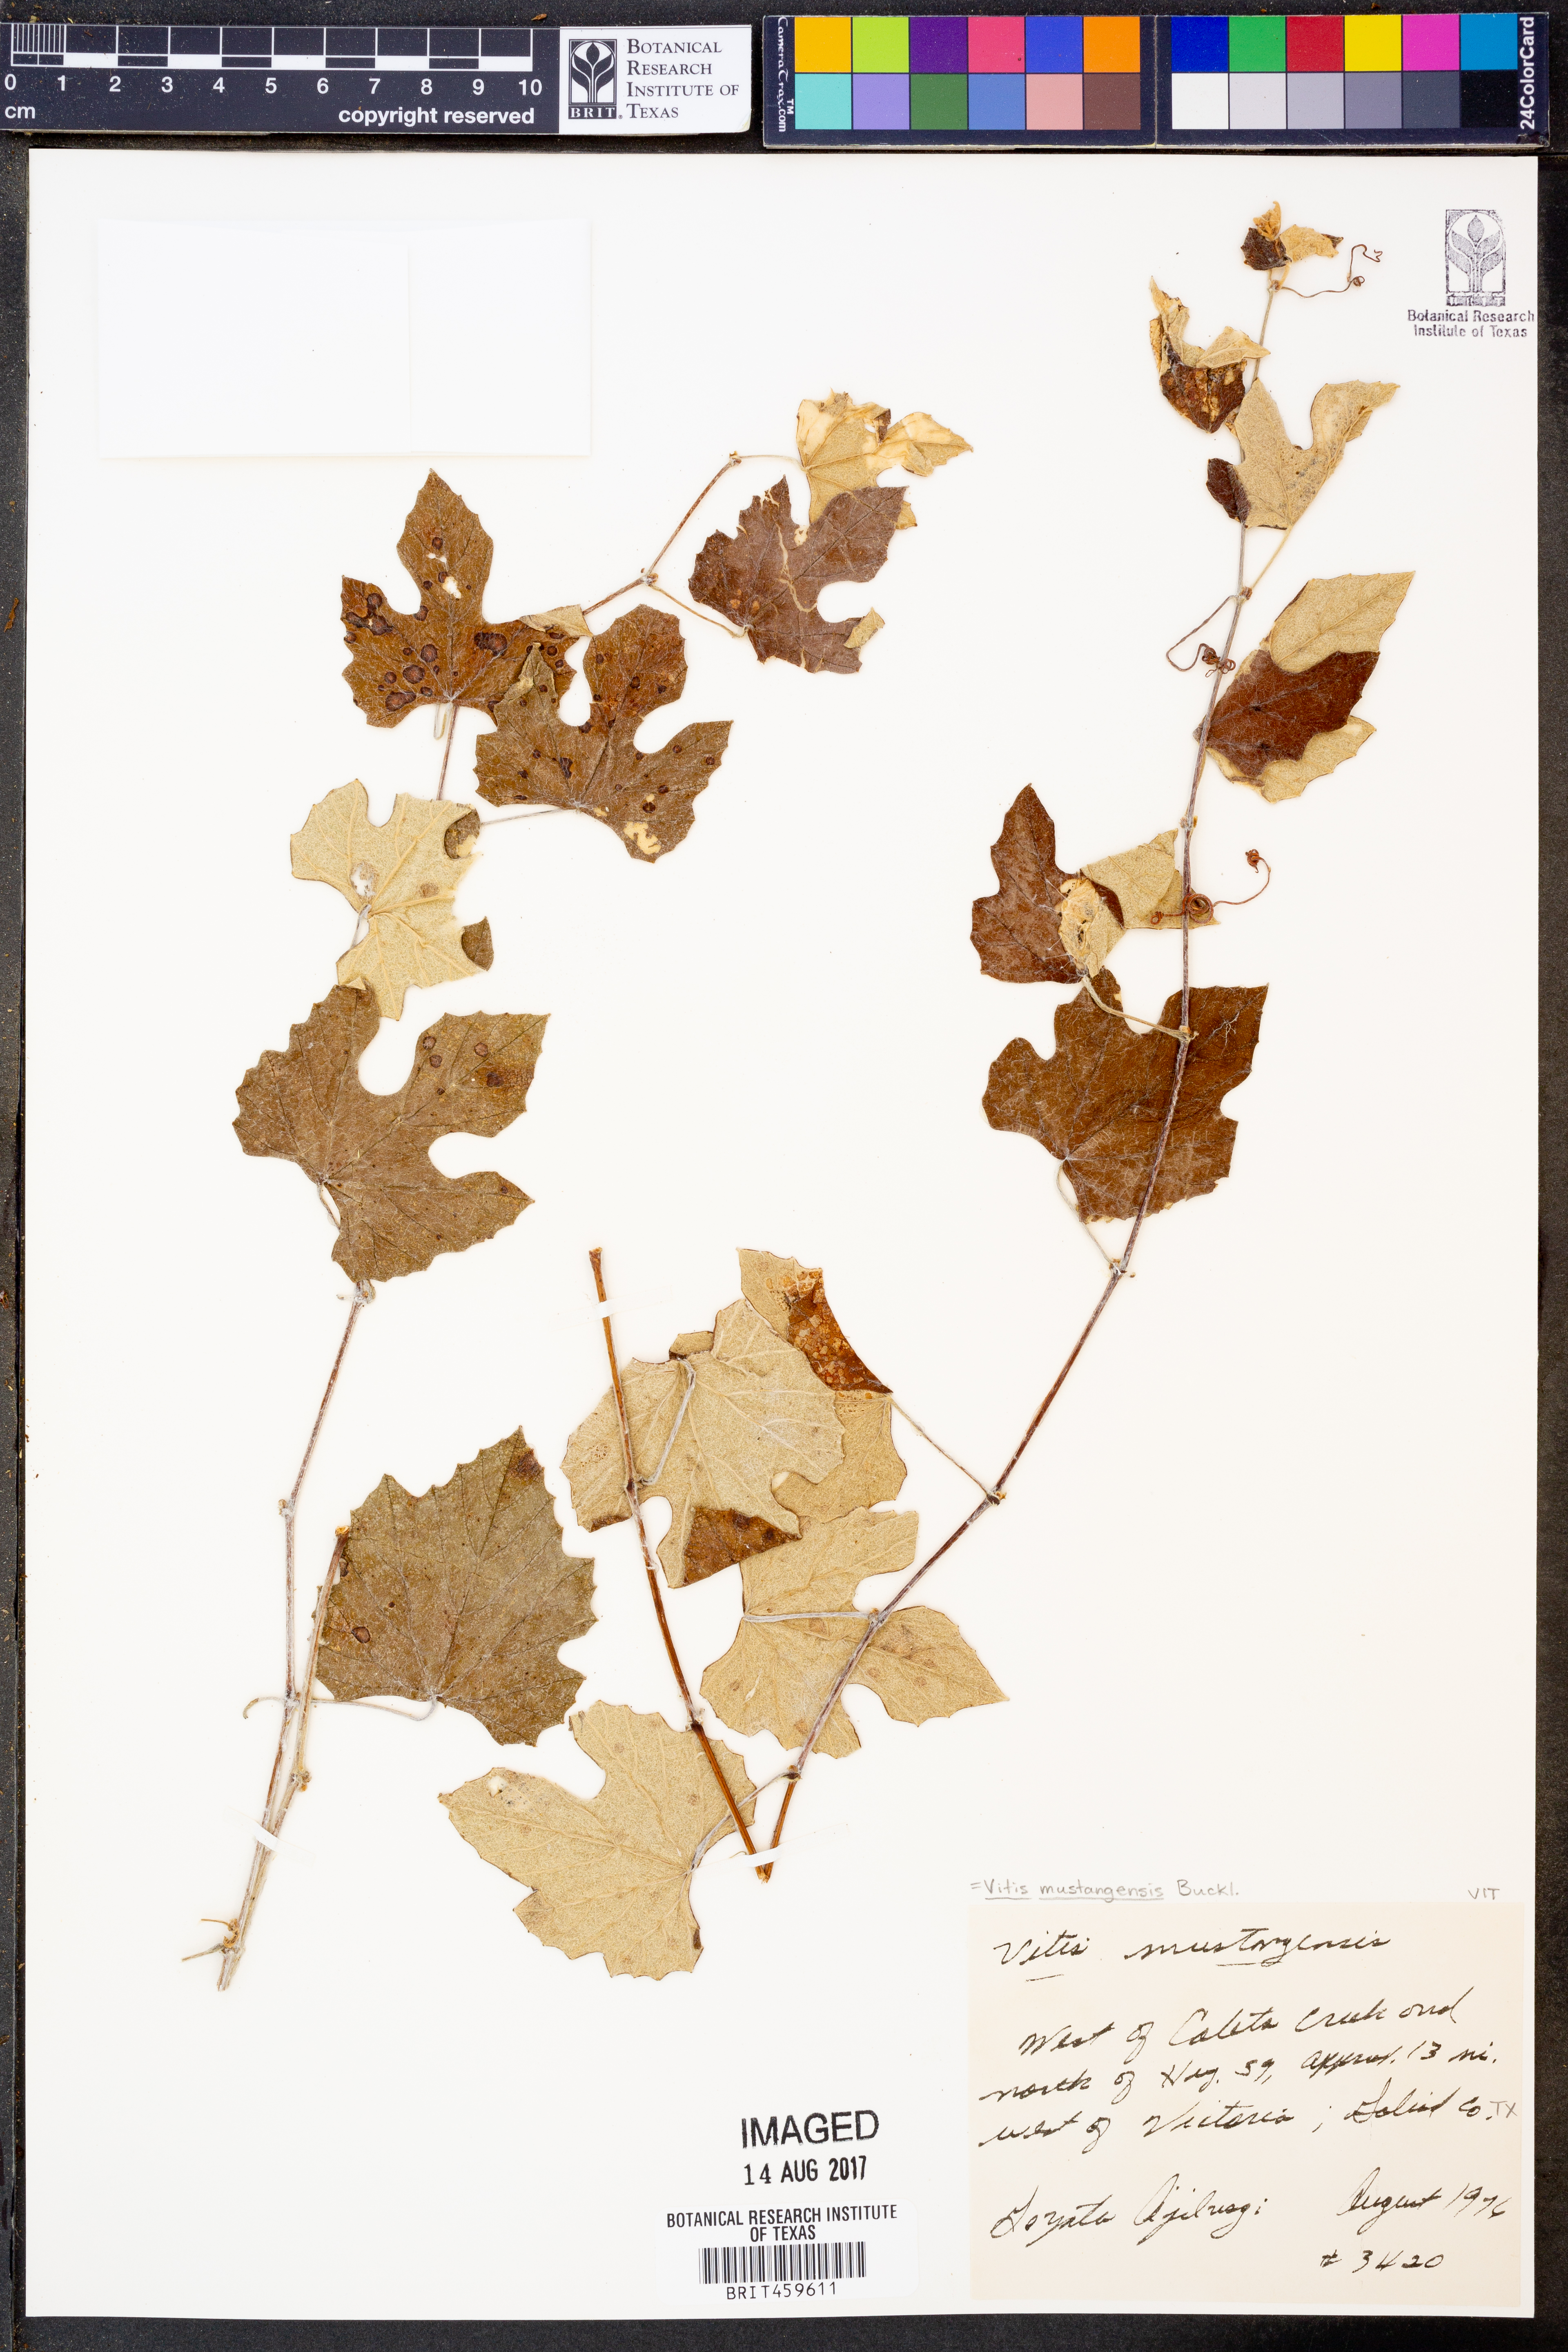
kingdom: Plantae
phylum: Tracheophyta
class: Magnoliopsida
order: Vitales
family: Vitaceae
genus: Vitis
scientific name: Vitis mustangensis
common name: Mustang grape
